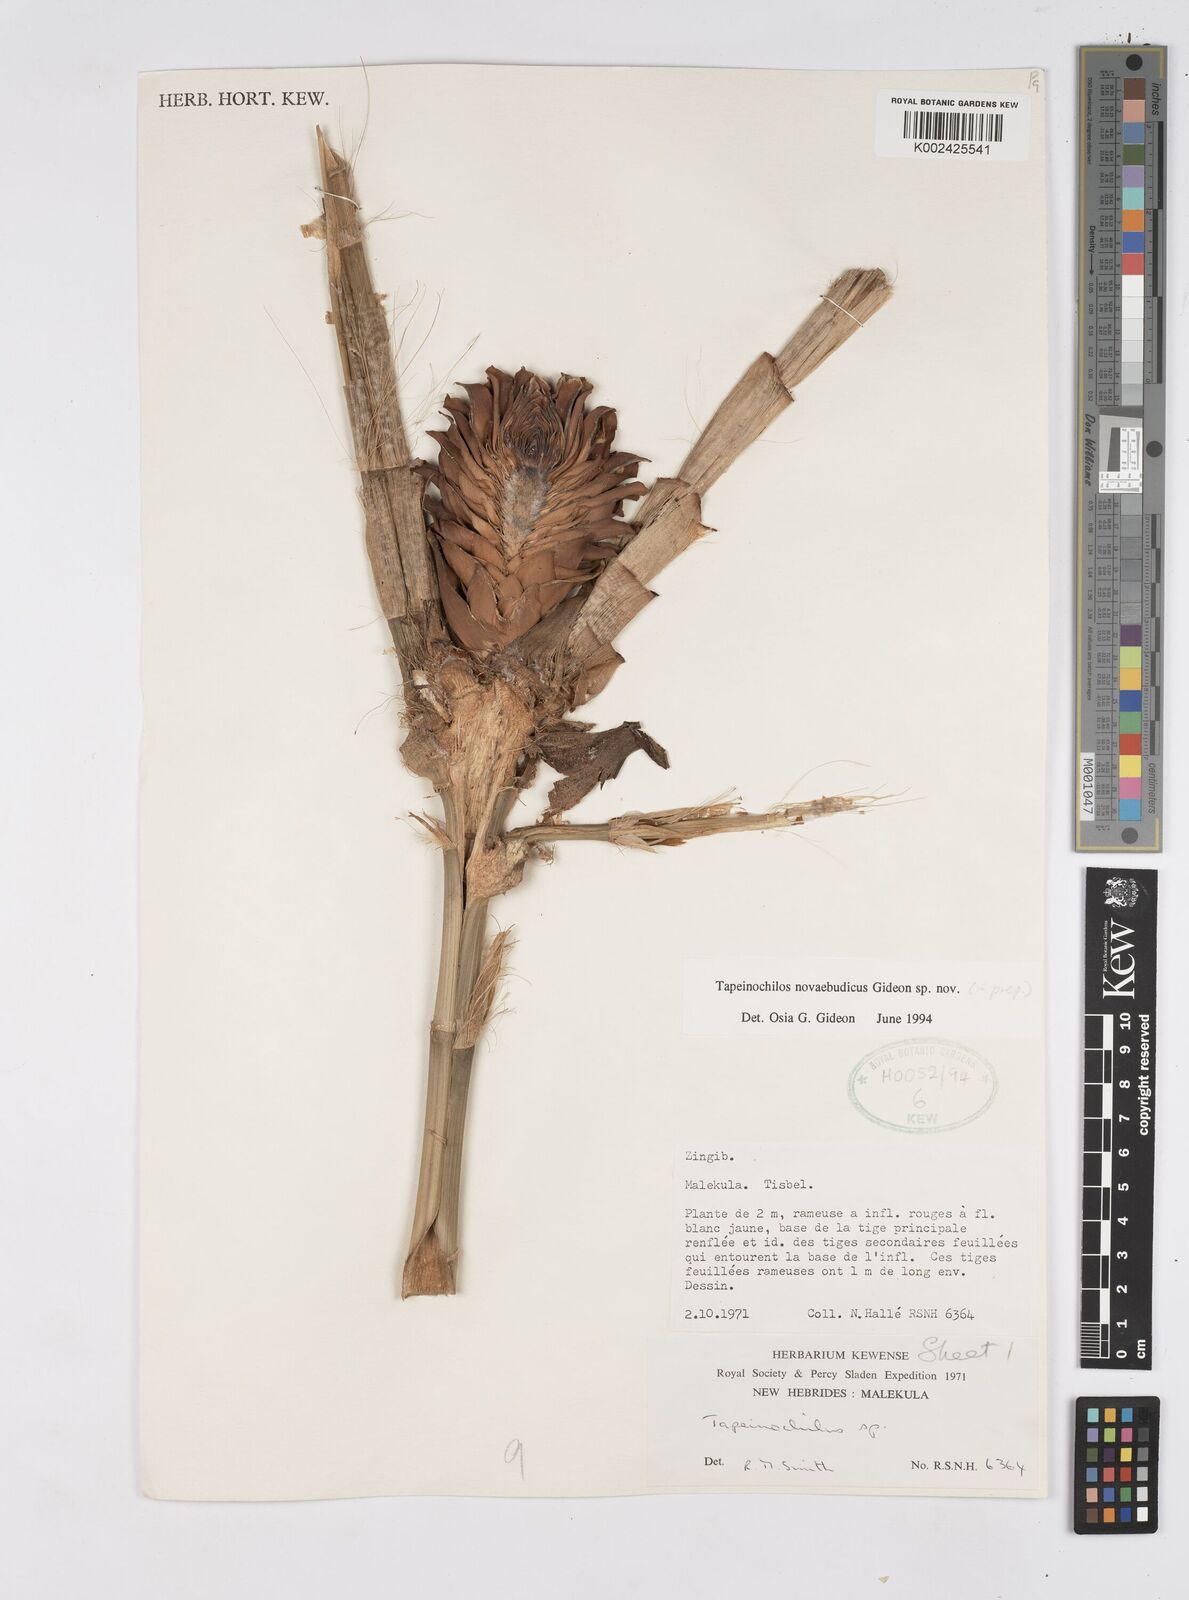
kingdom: Plantae
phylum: Tracheophyta
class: Liliopsida
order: Zingiberales
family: Costaceae
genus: Tapeinochilos
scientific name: Tapeinochilos
